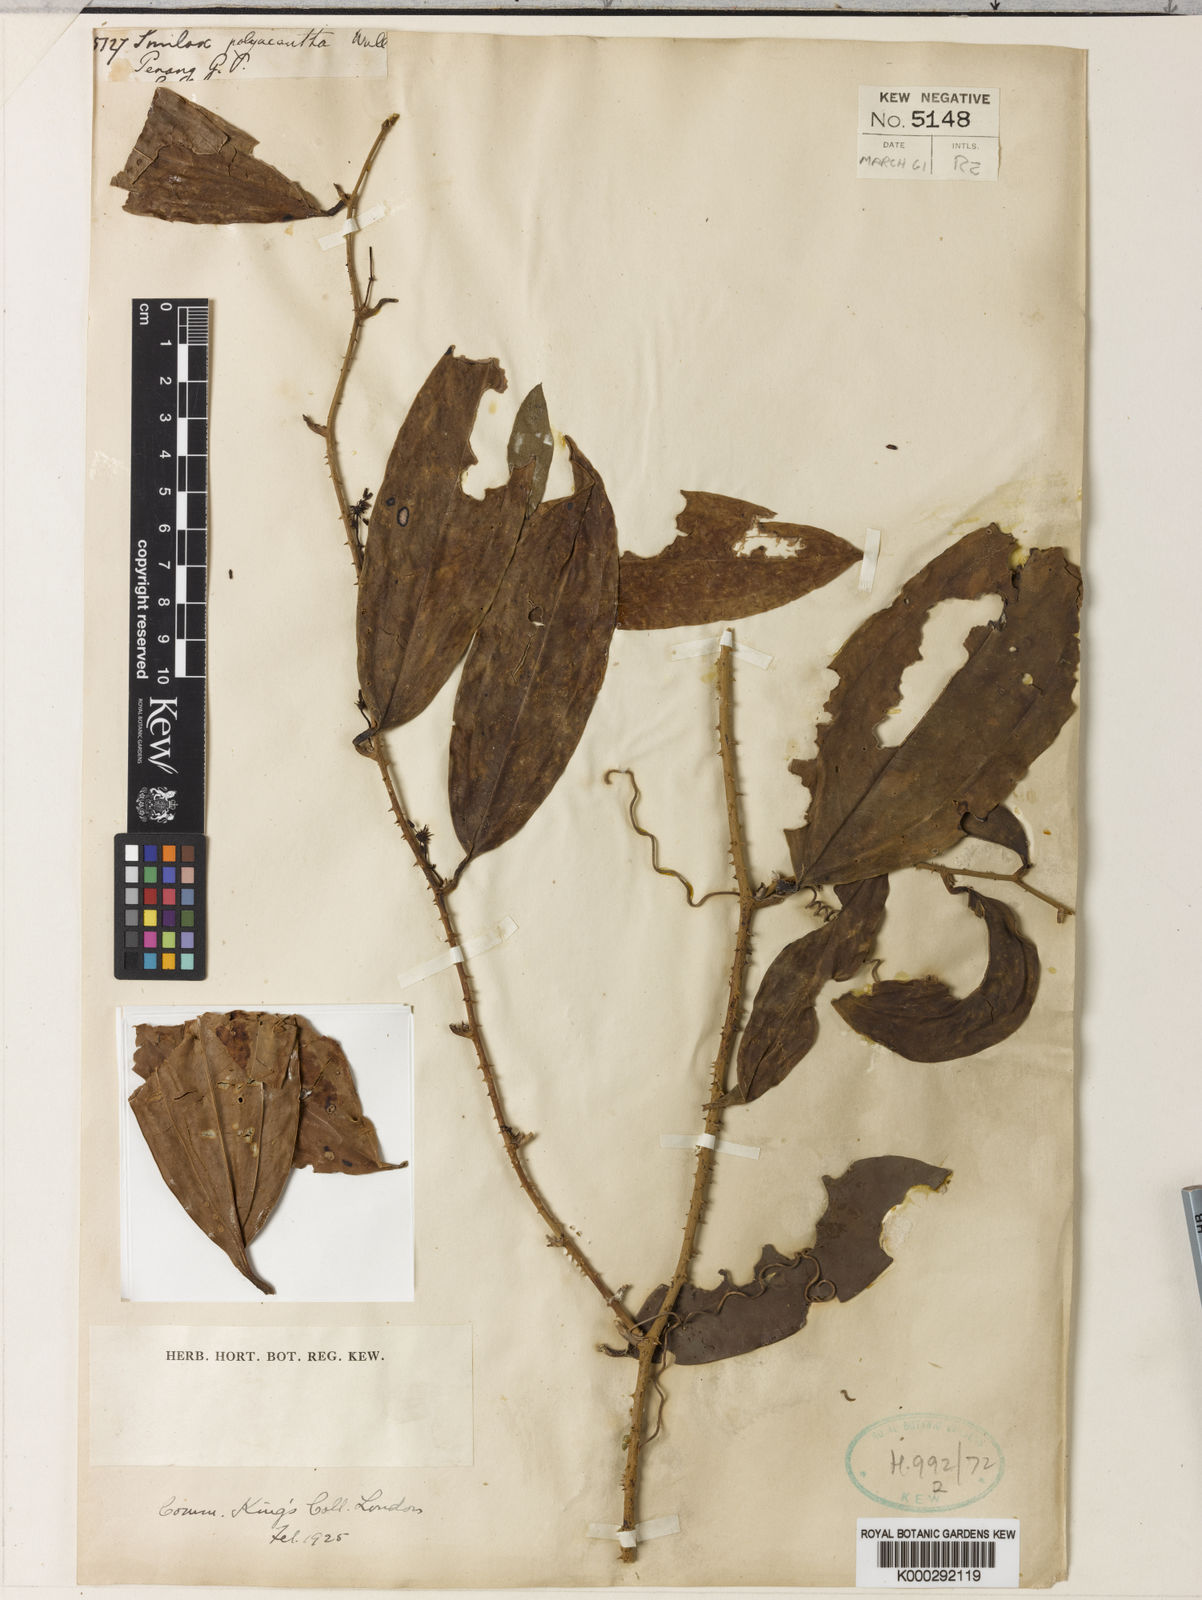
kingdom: Plantae
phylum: Tracheophyta
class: Liliopsida
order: Liliales
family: Smilacaceae
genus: Smilax
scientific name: Smilax polyacantha
